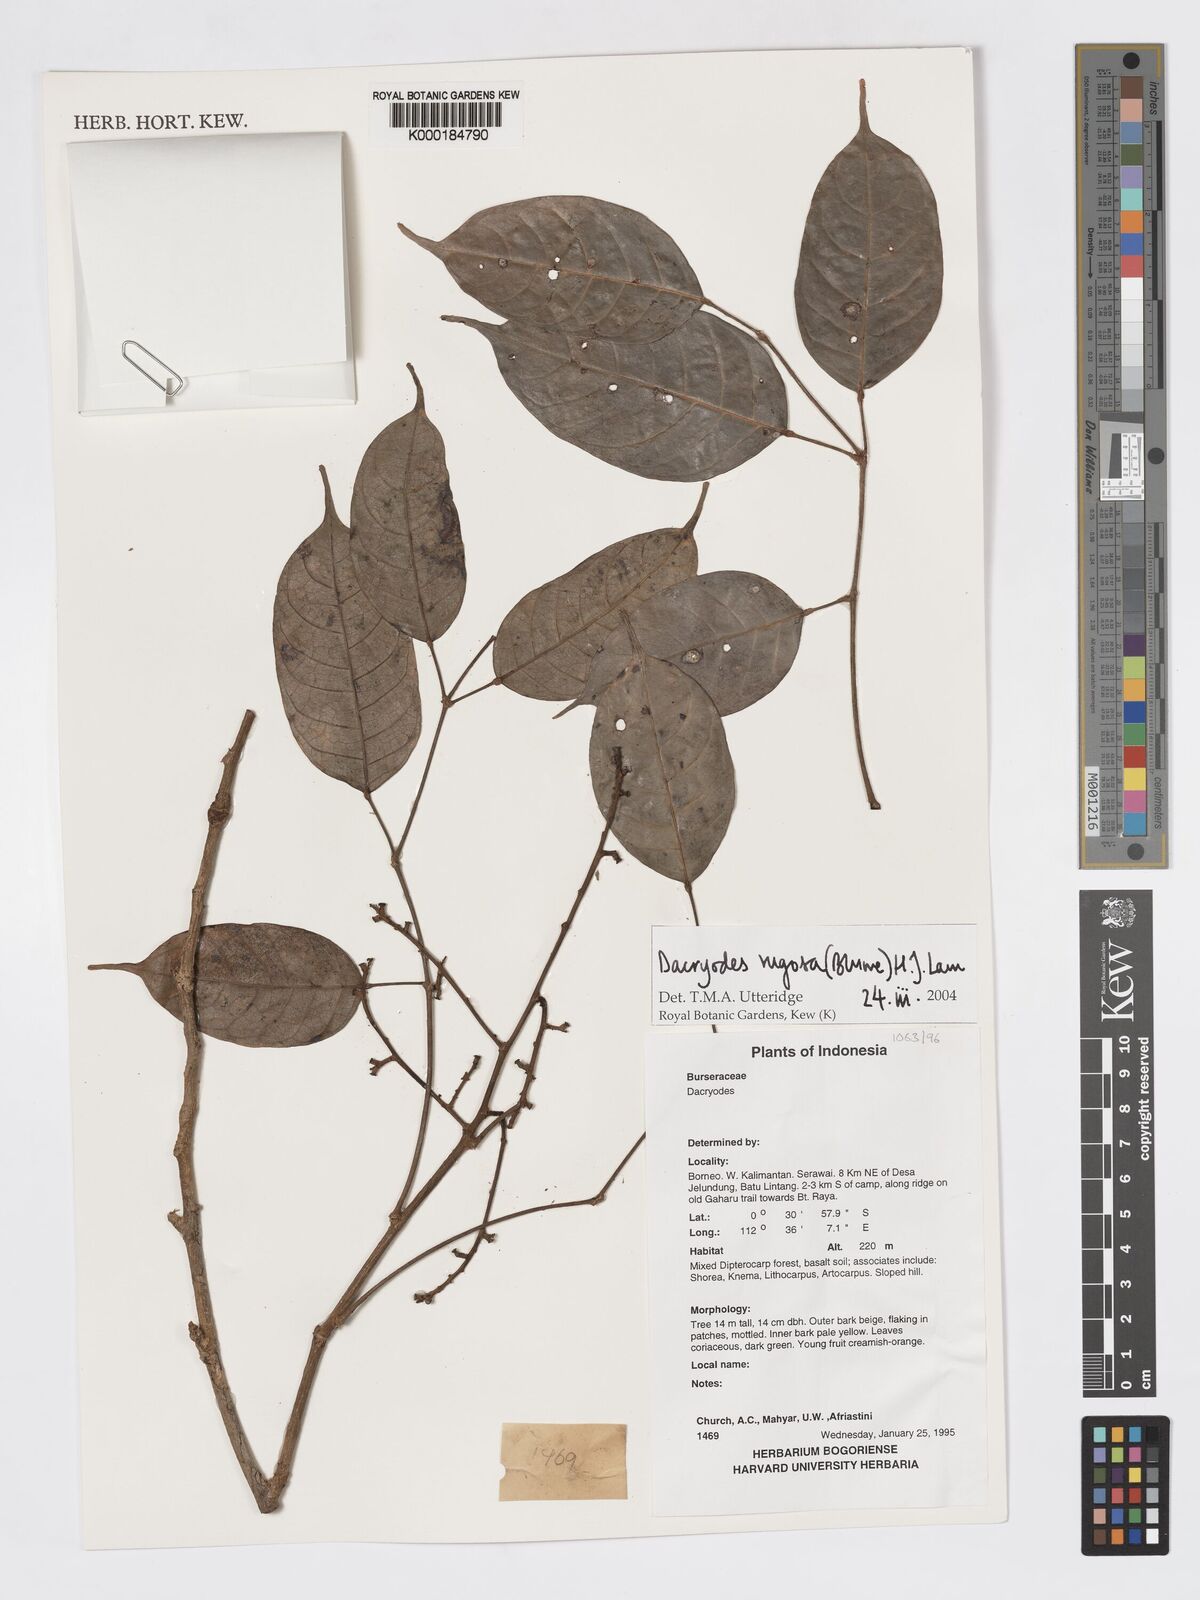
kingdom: Plantae
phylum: Tracheophyta
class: Magnoliopsida
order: Sapindales
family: Burseraceae
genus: Dacryodes
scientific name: Dacryodes rugosa
